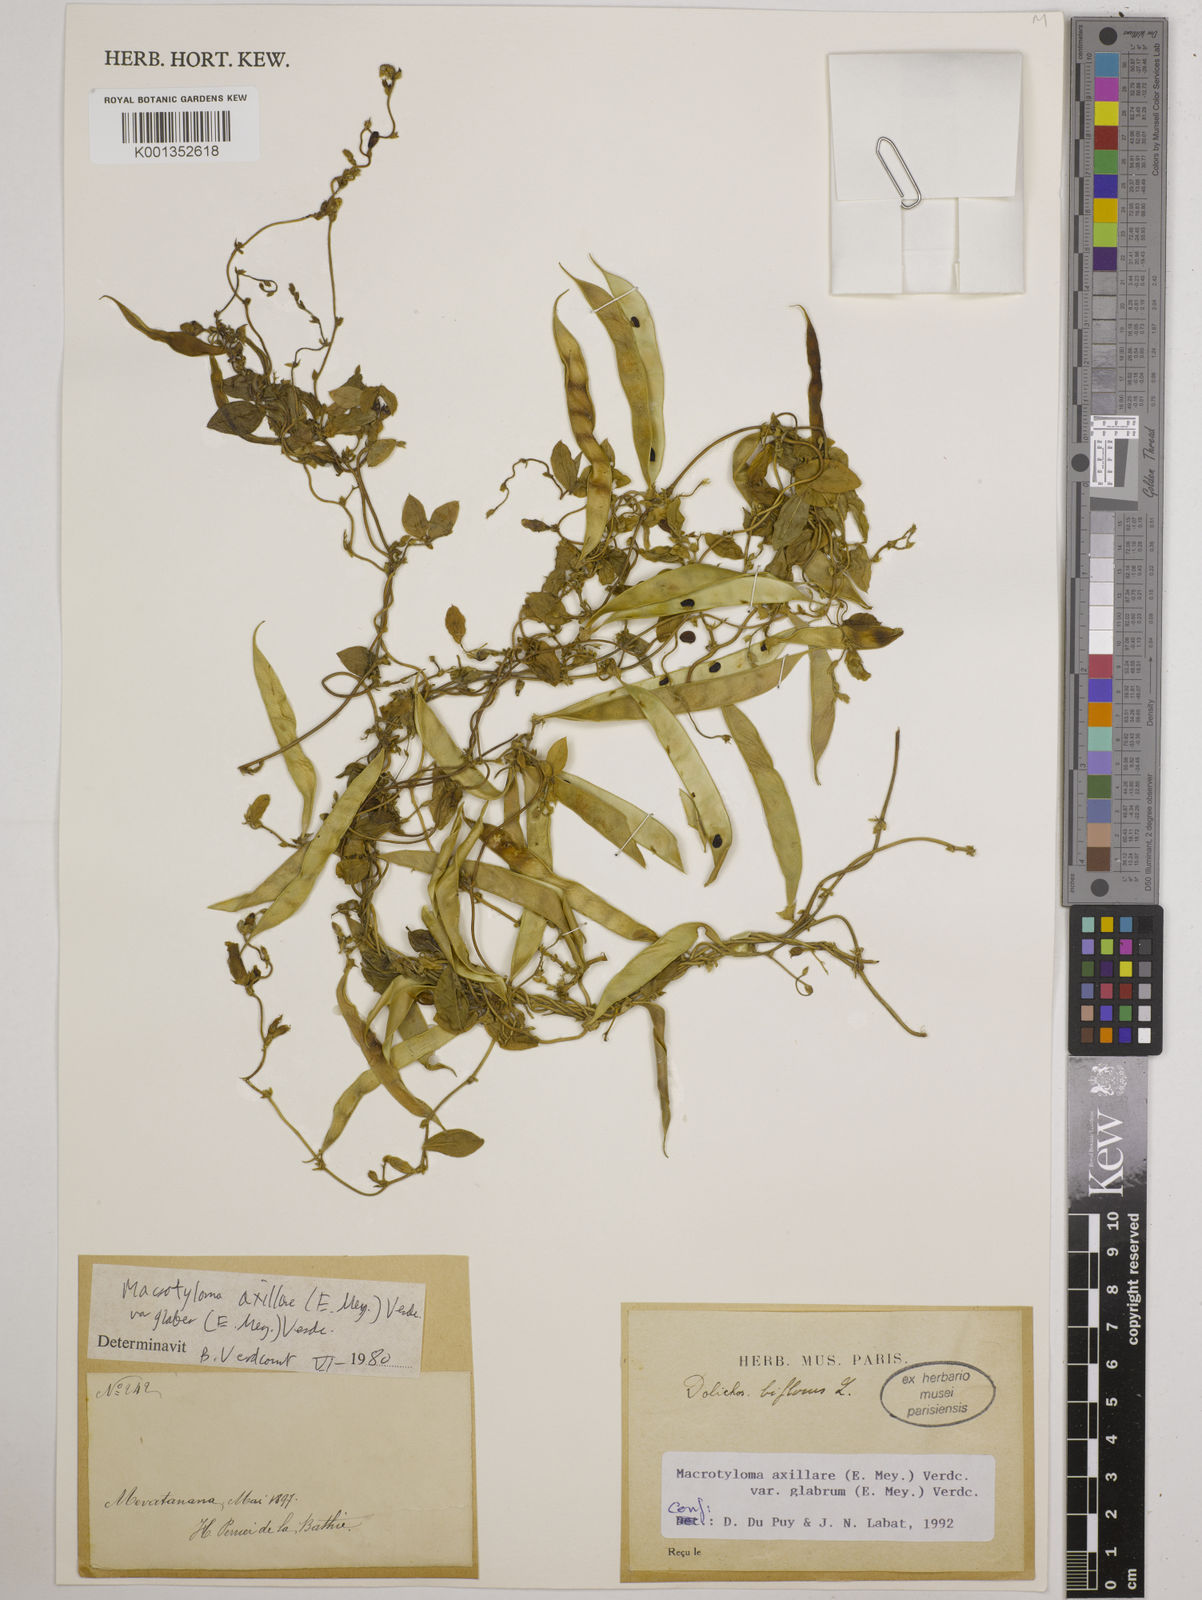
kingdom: Plantae
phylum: Tracheophyta
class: Magnoliopsida
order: Fabales
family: Fabaceae
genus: Macrotyloma
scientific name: Macrotyloma
